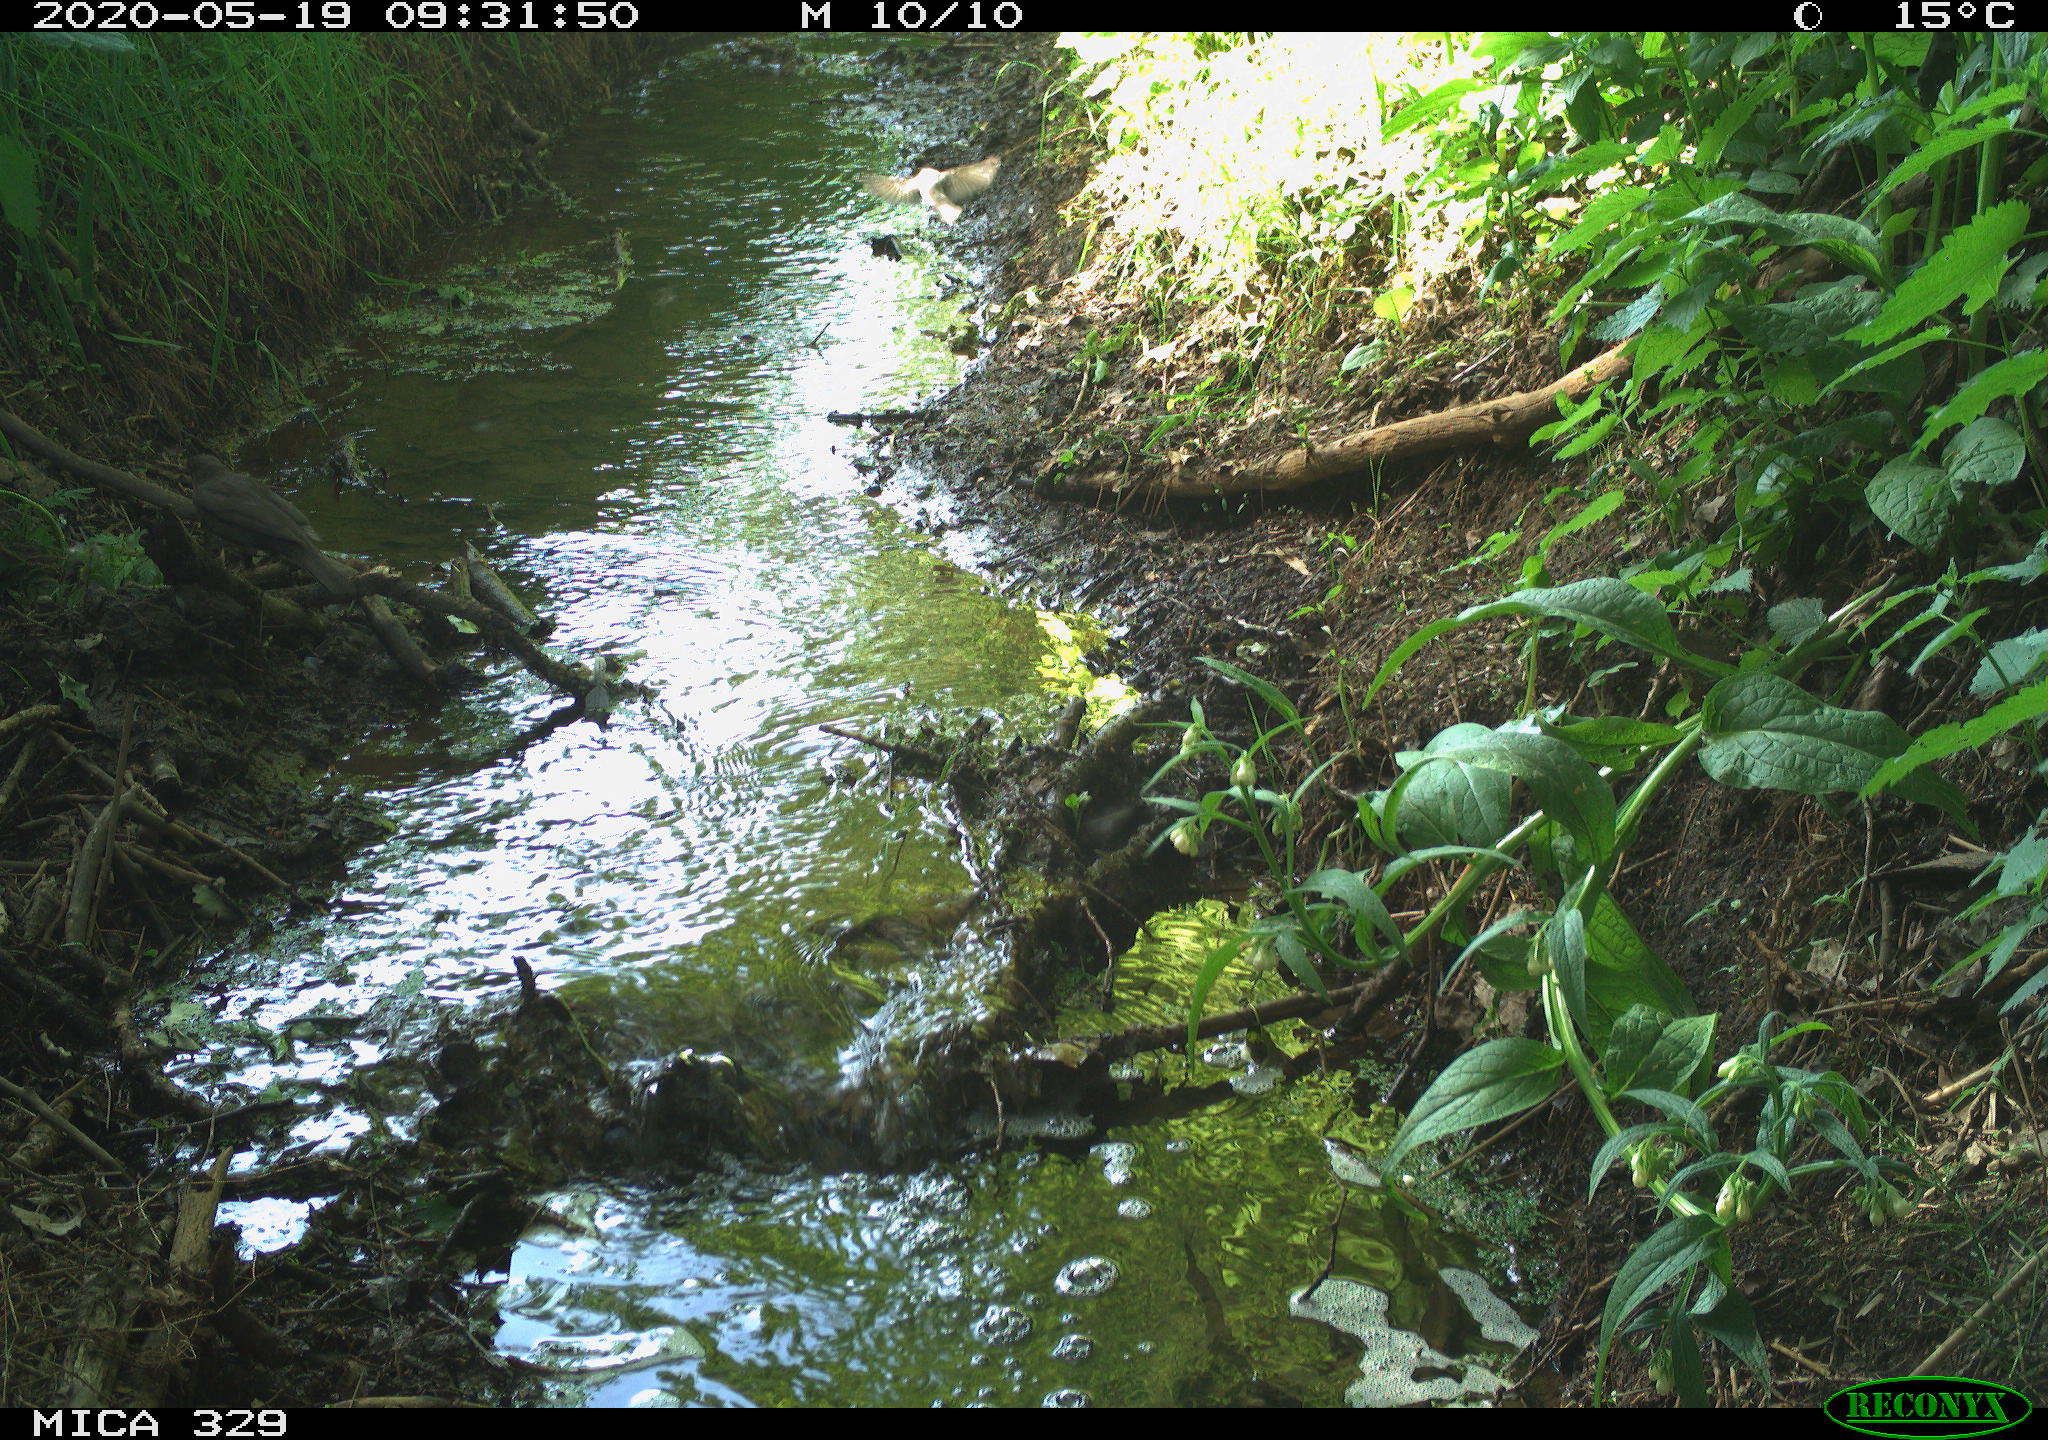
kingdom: Animalia
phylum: Chordata
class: Aves
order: Passeriformes
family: Turdidae
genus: Turdus
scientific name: Turdus philomelos
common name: Song thrush
